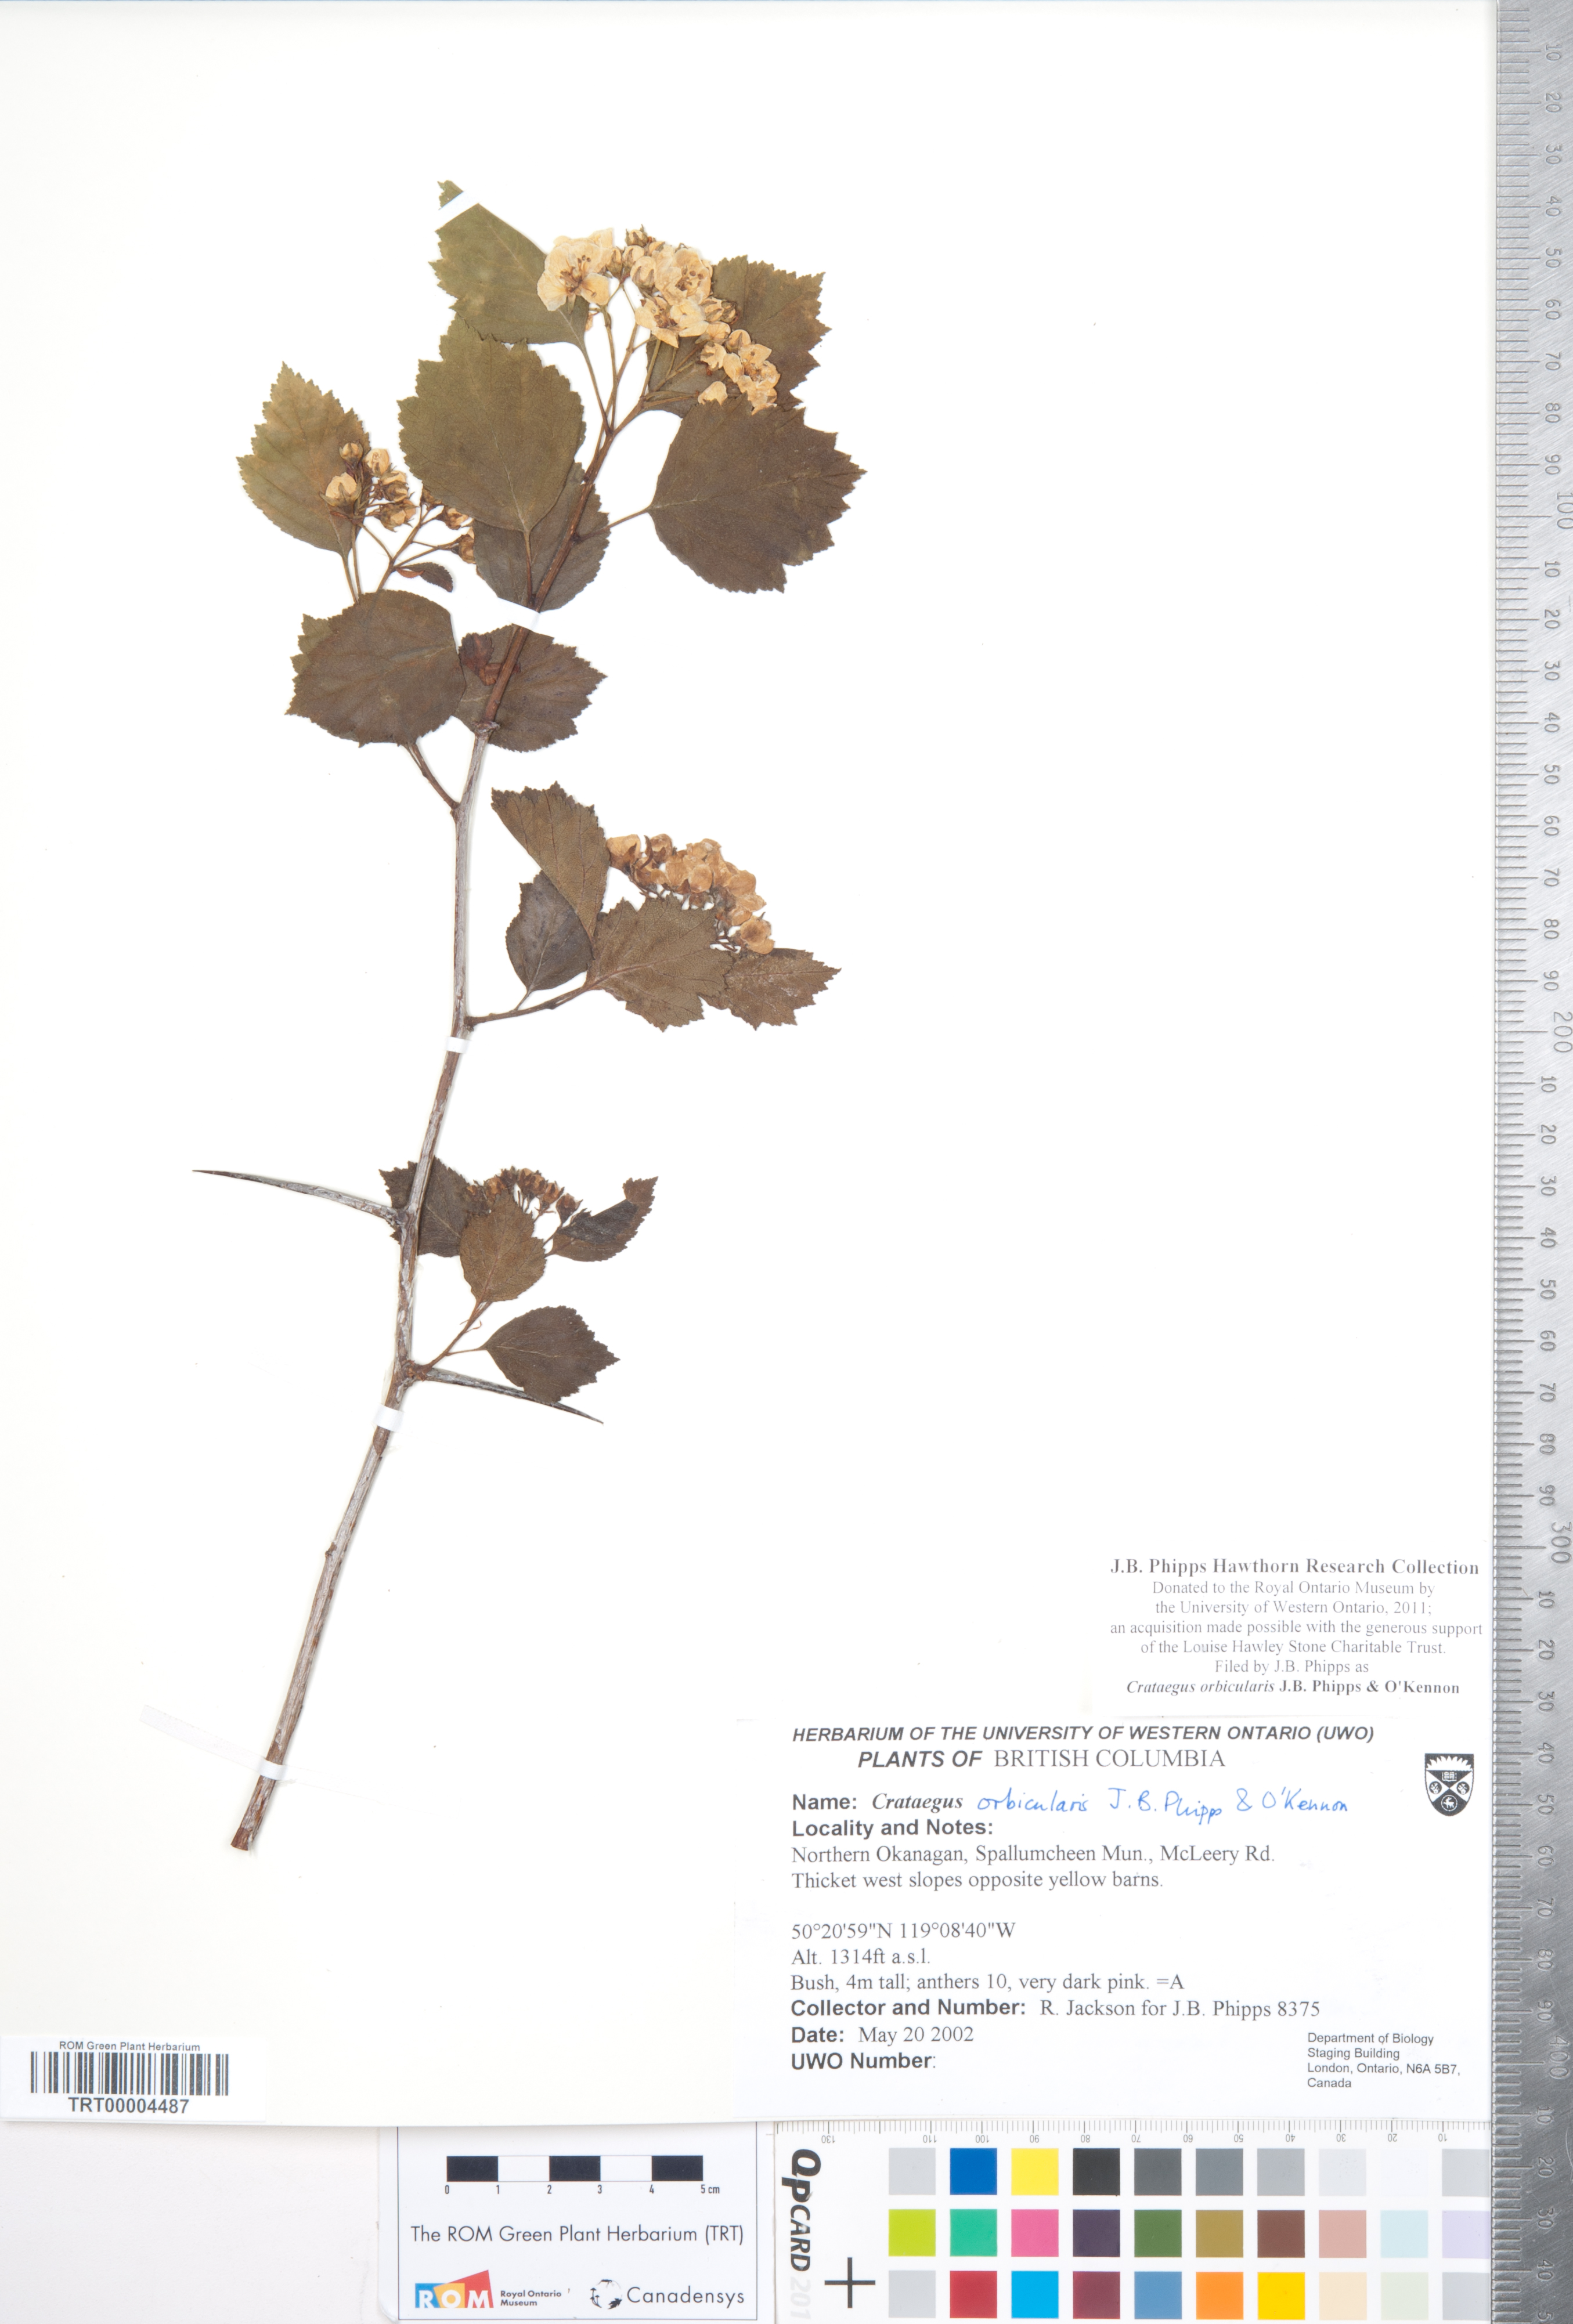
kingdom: Plantae
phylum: Tracheophyta
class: Magnoliopsida
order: Rosales
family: Rosaceae
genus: Crataegus
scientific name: Crataegus orbicularis
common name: Orbicular-leaved hawthorn
